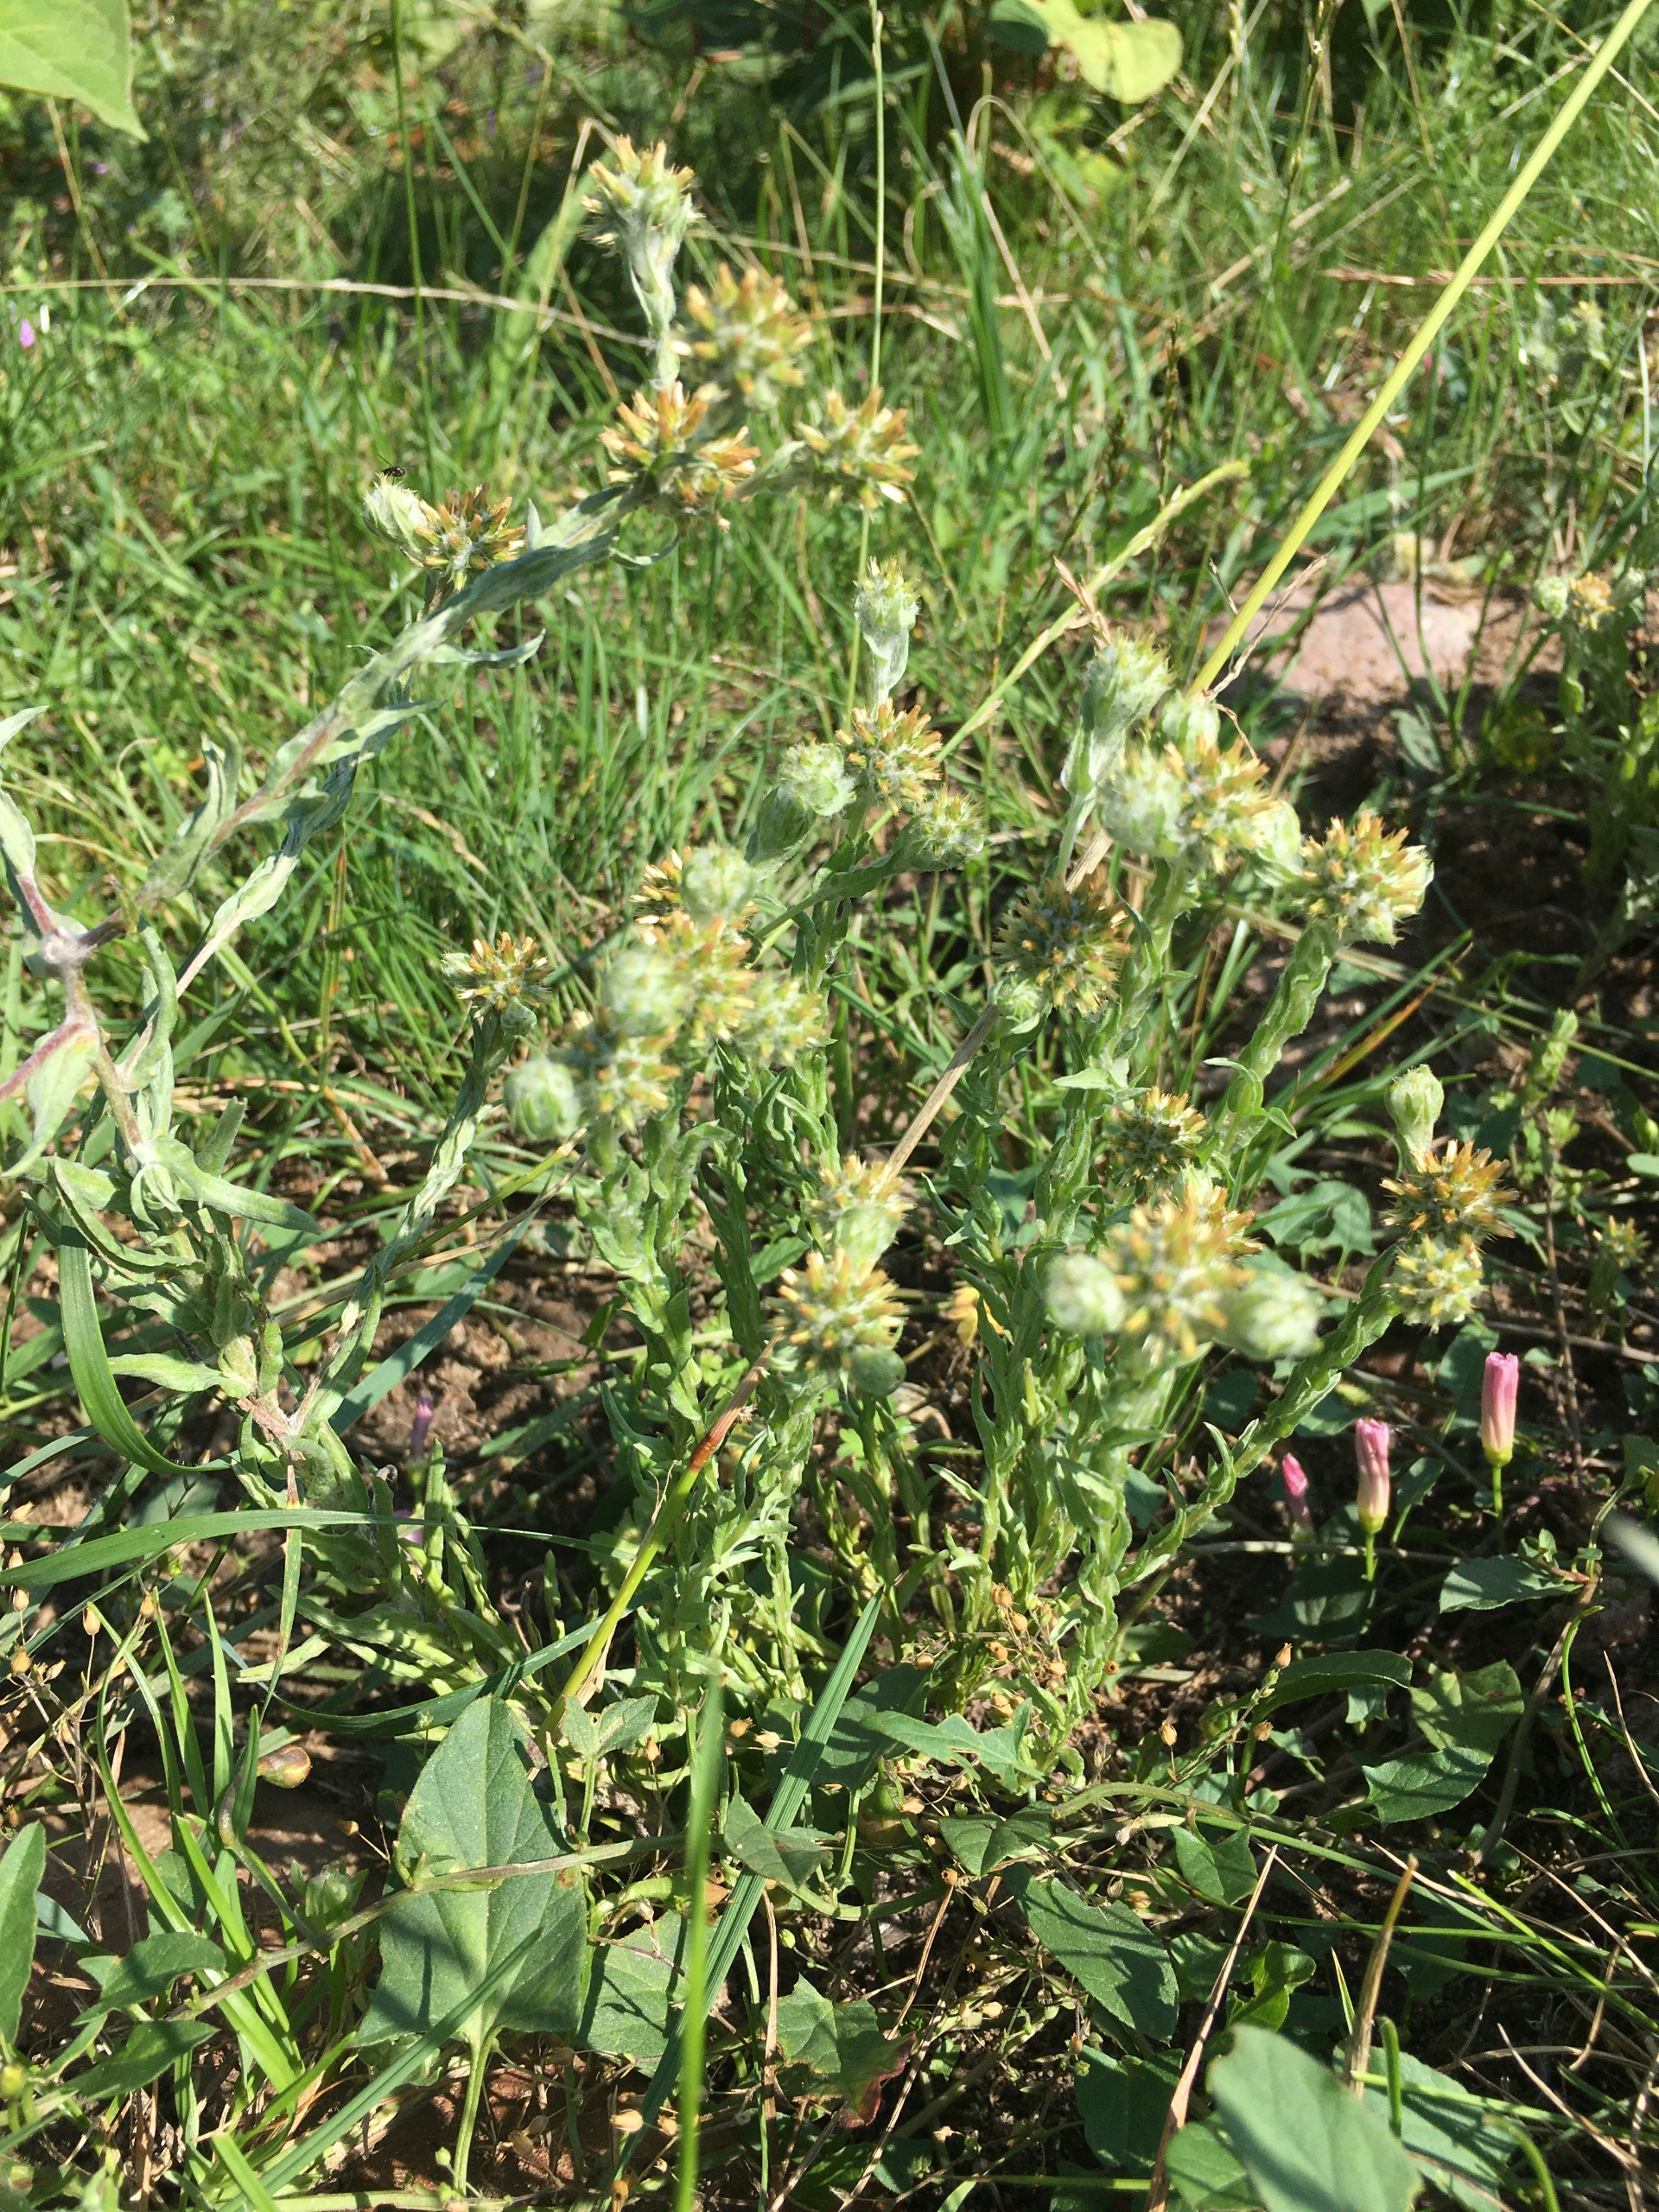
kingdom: Plantae
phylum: Tracheophyta
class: Magnoliopsida
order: Asterales
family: Asteraceae
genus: Filago
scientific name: Filago germanica
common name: Kugle-museurt
